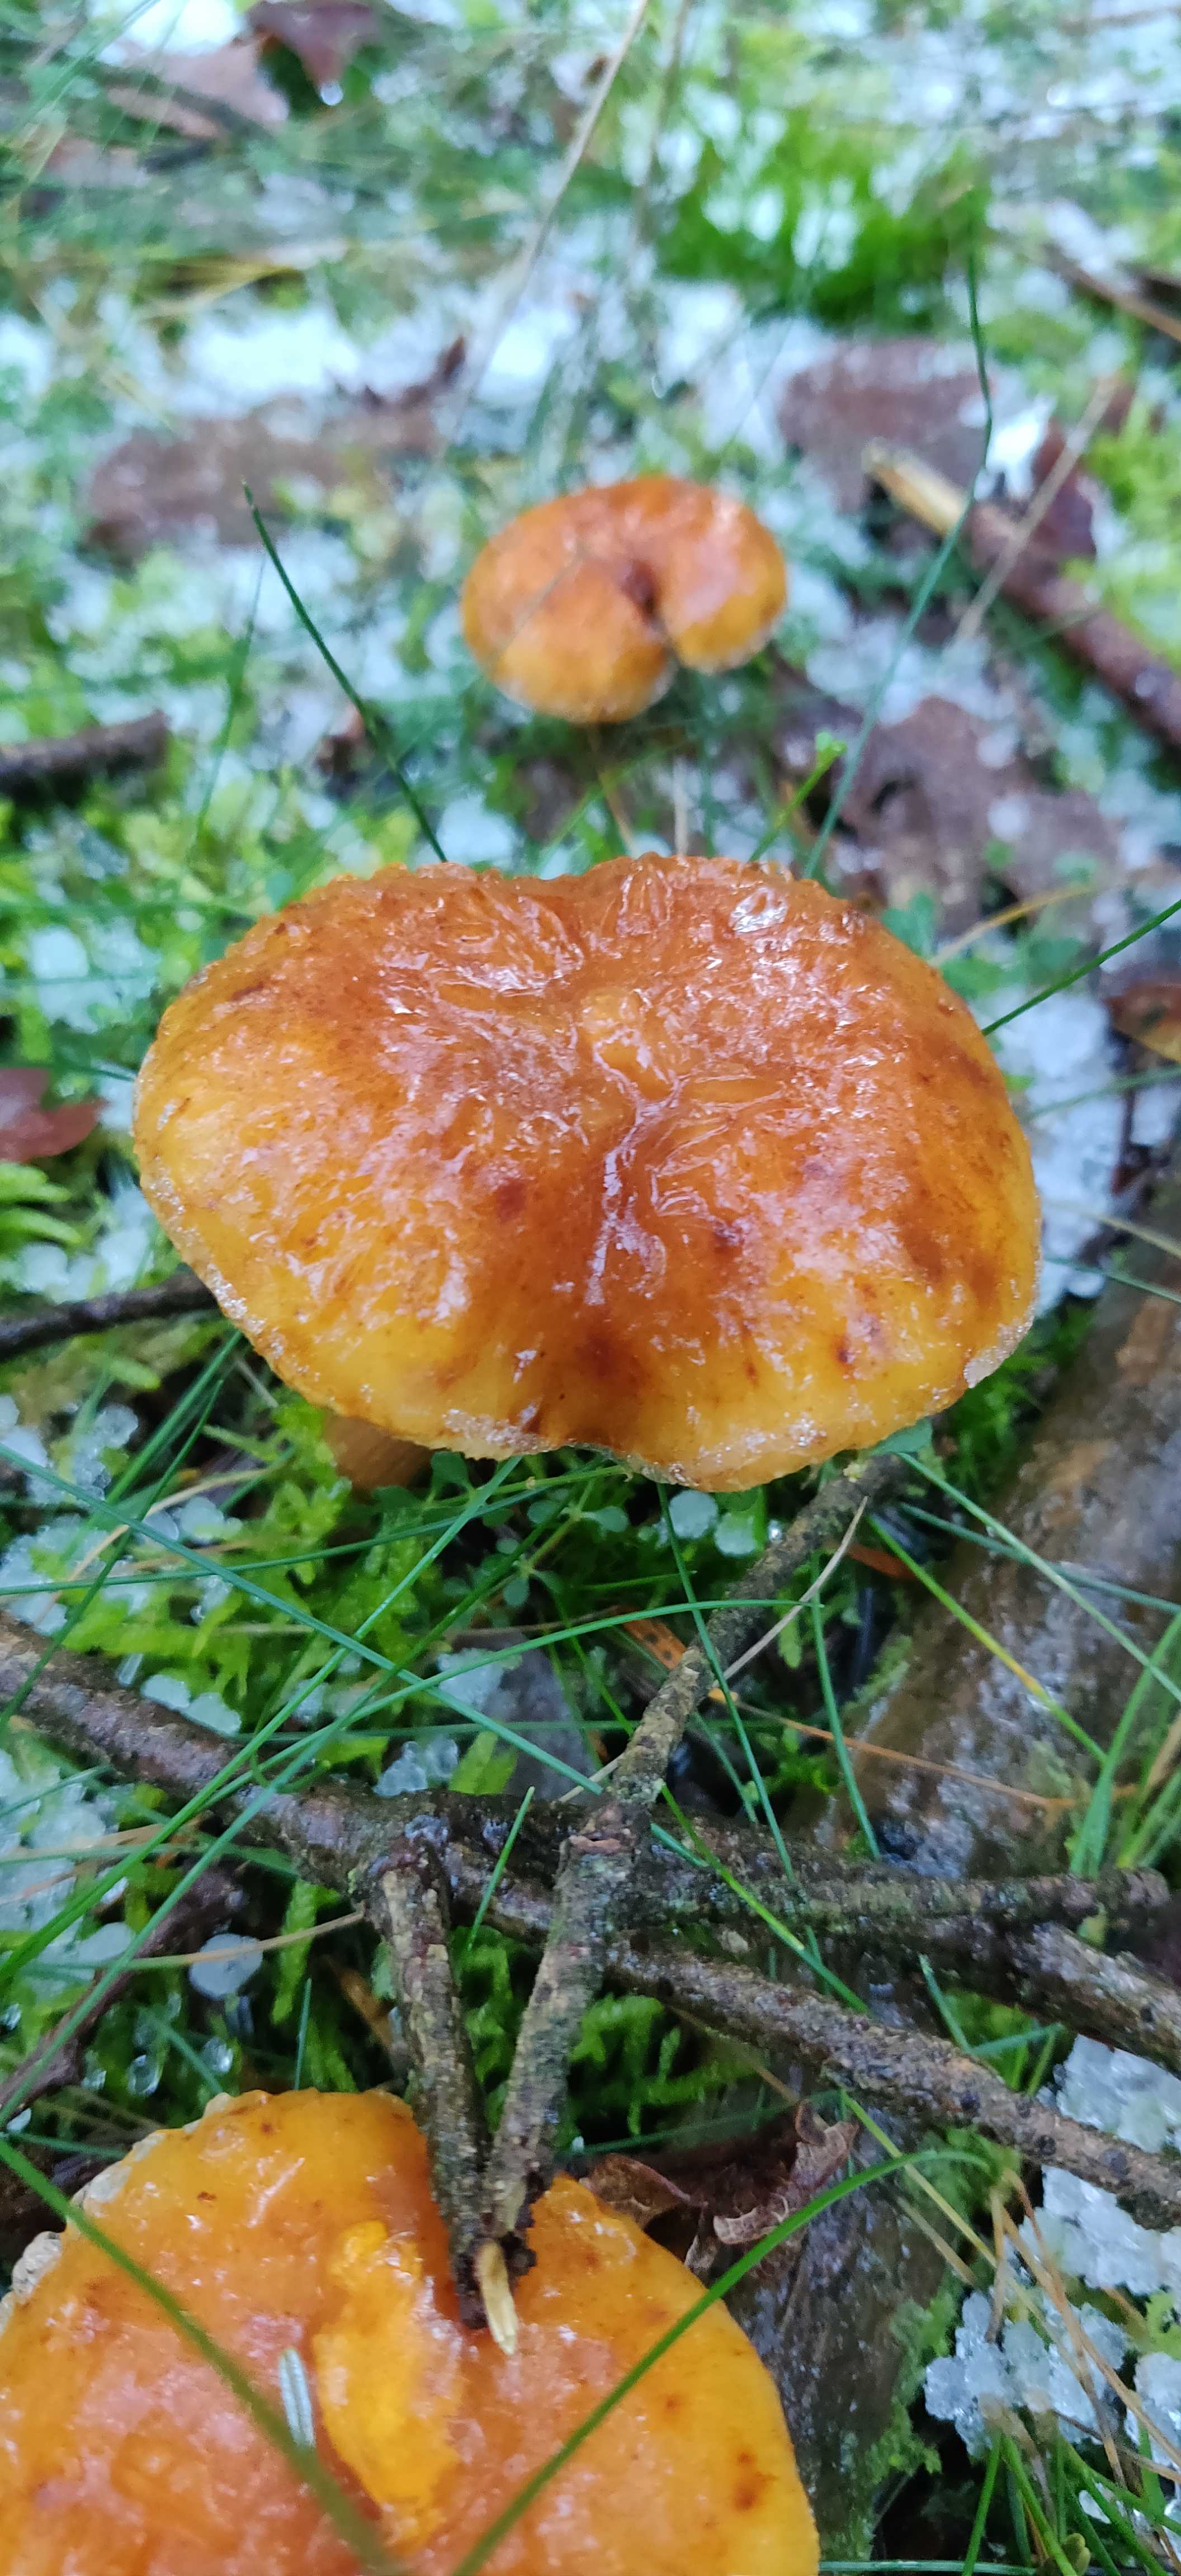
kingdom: Fungi
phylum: Basidiomycota
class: Agaricomycetes
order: Agaricales
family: Hymenogastraceae
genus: Gymnopilus
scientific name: Gymnopilus penetrans
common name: plettet flammehat
